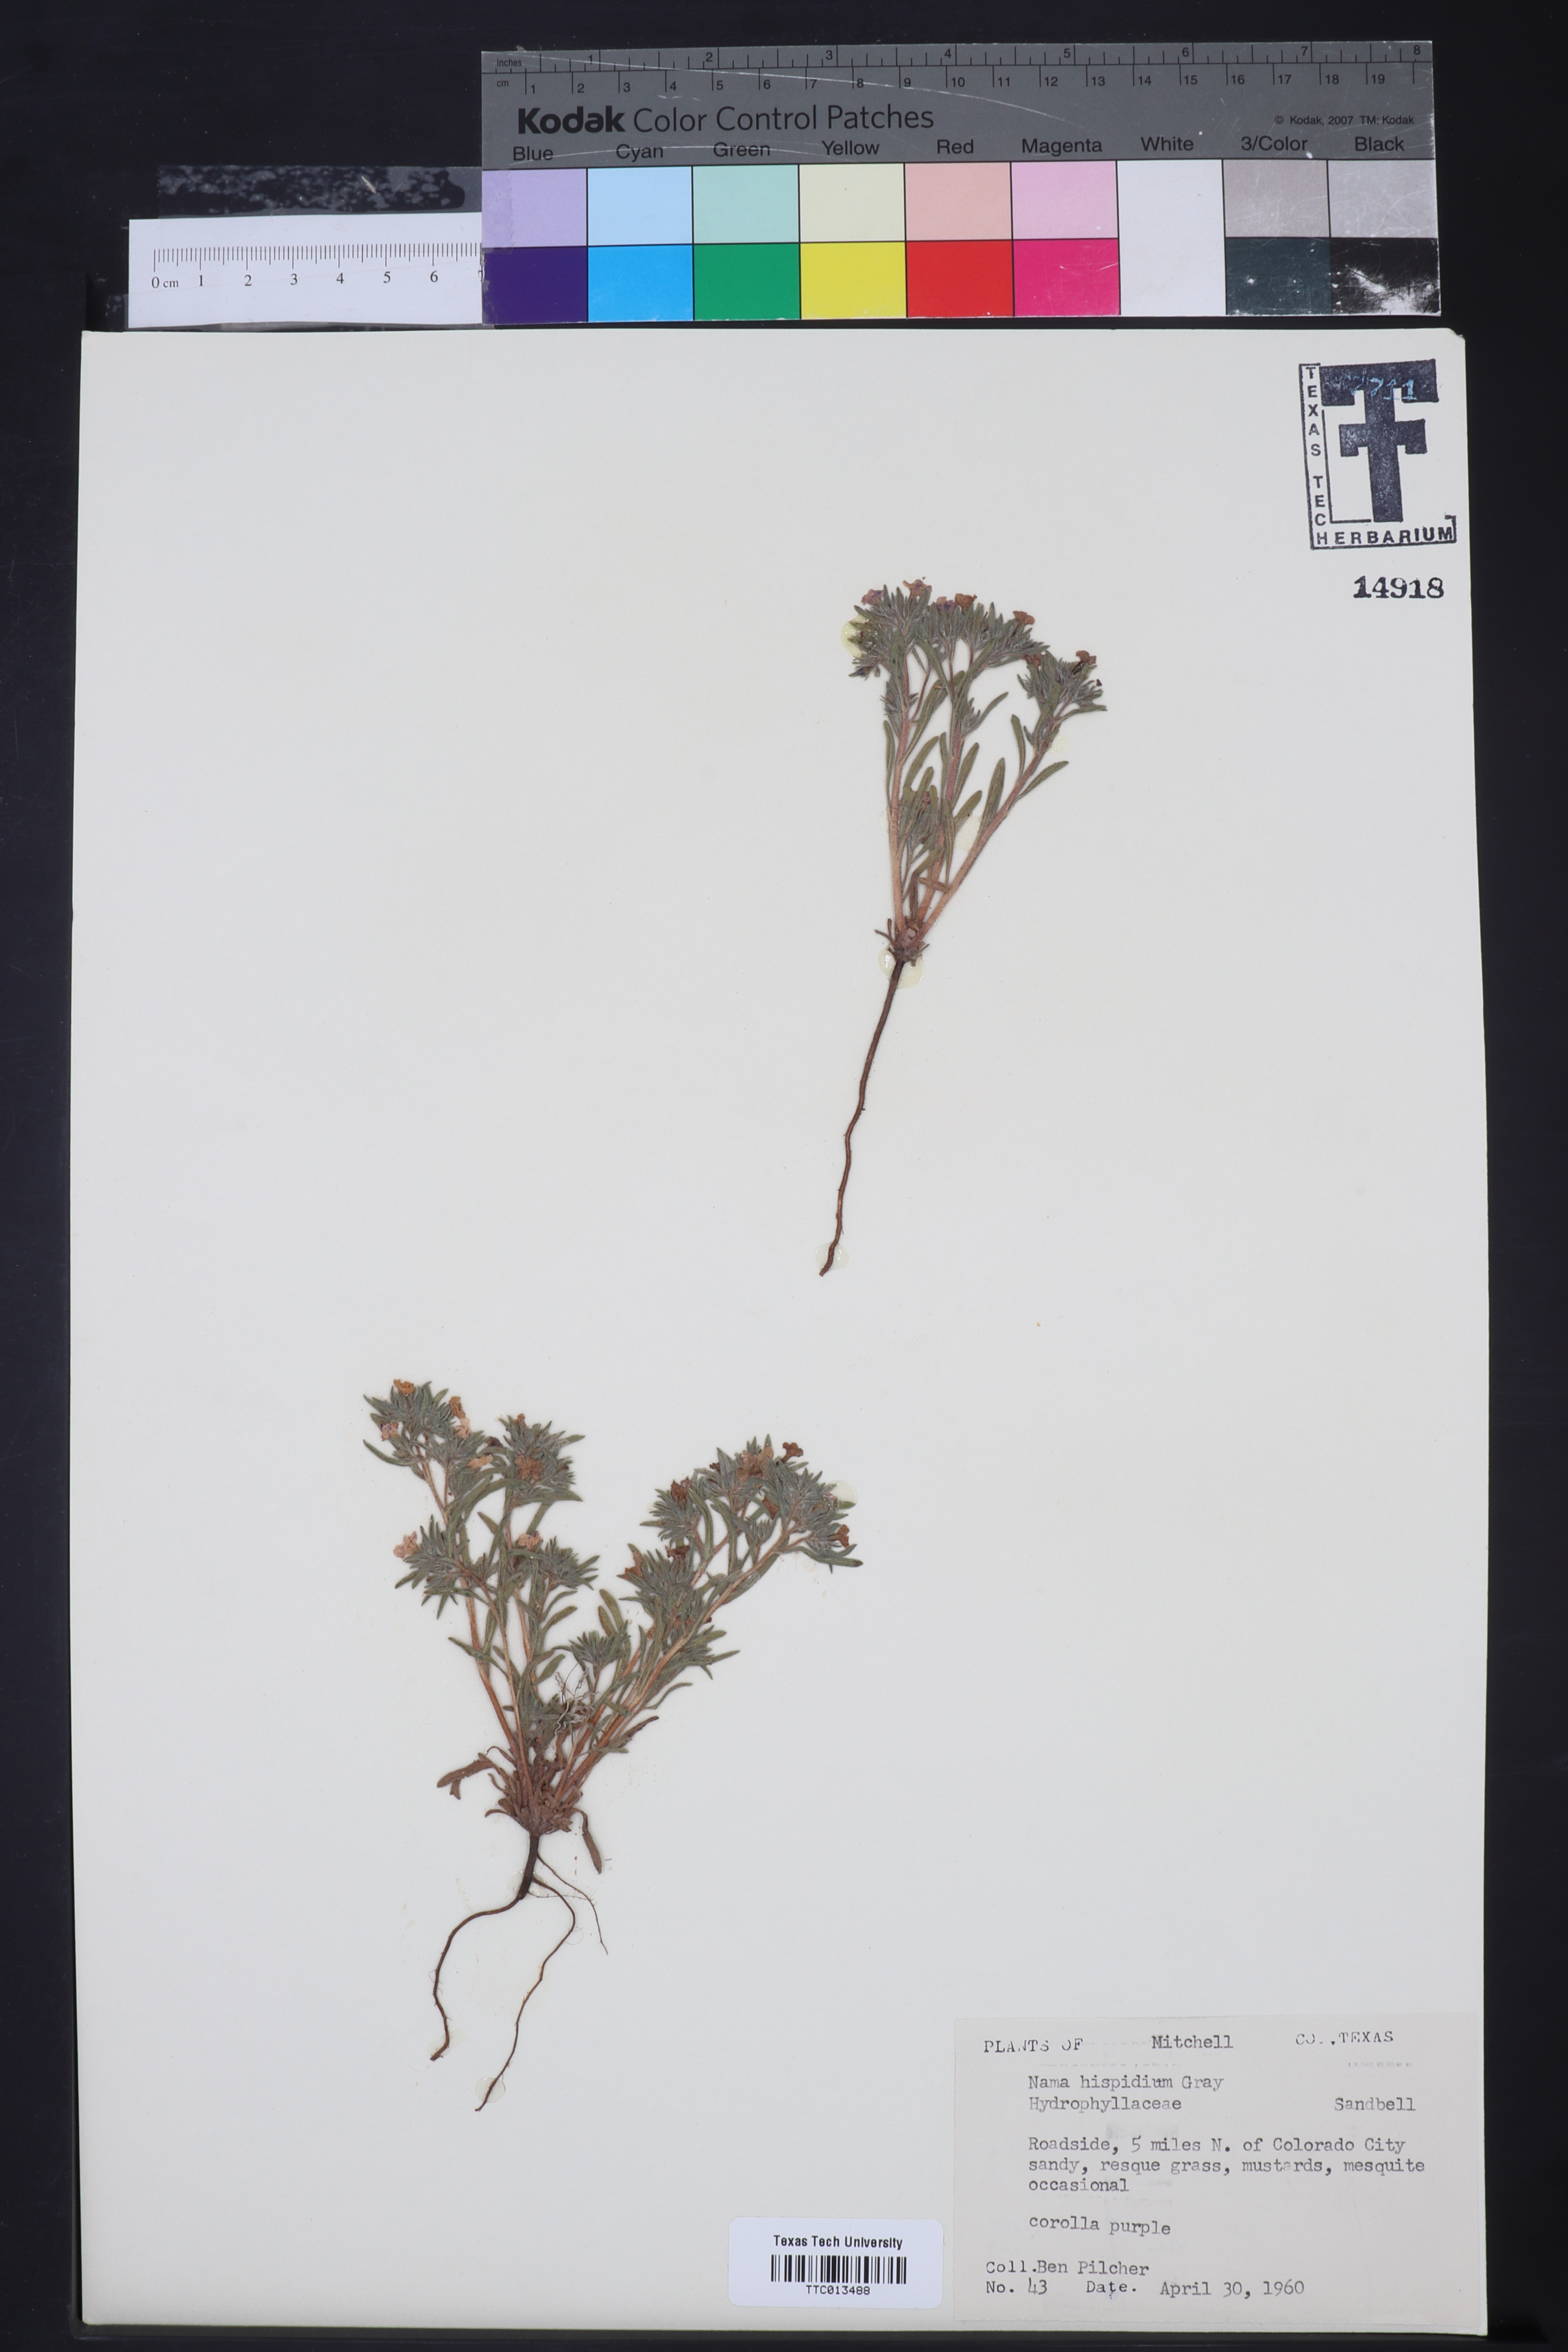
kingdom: Plantae
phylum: Tracheophyta
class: Magnoliopsida
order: Boraginales
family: Namaceae
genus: Nama
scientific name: Nama hispida
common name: Bristly nama
